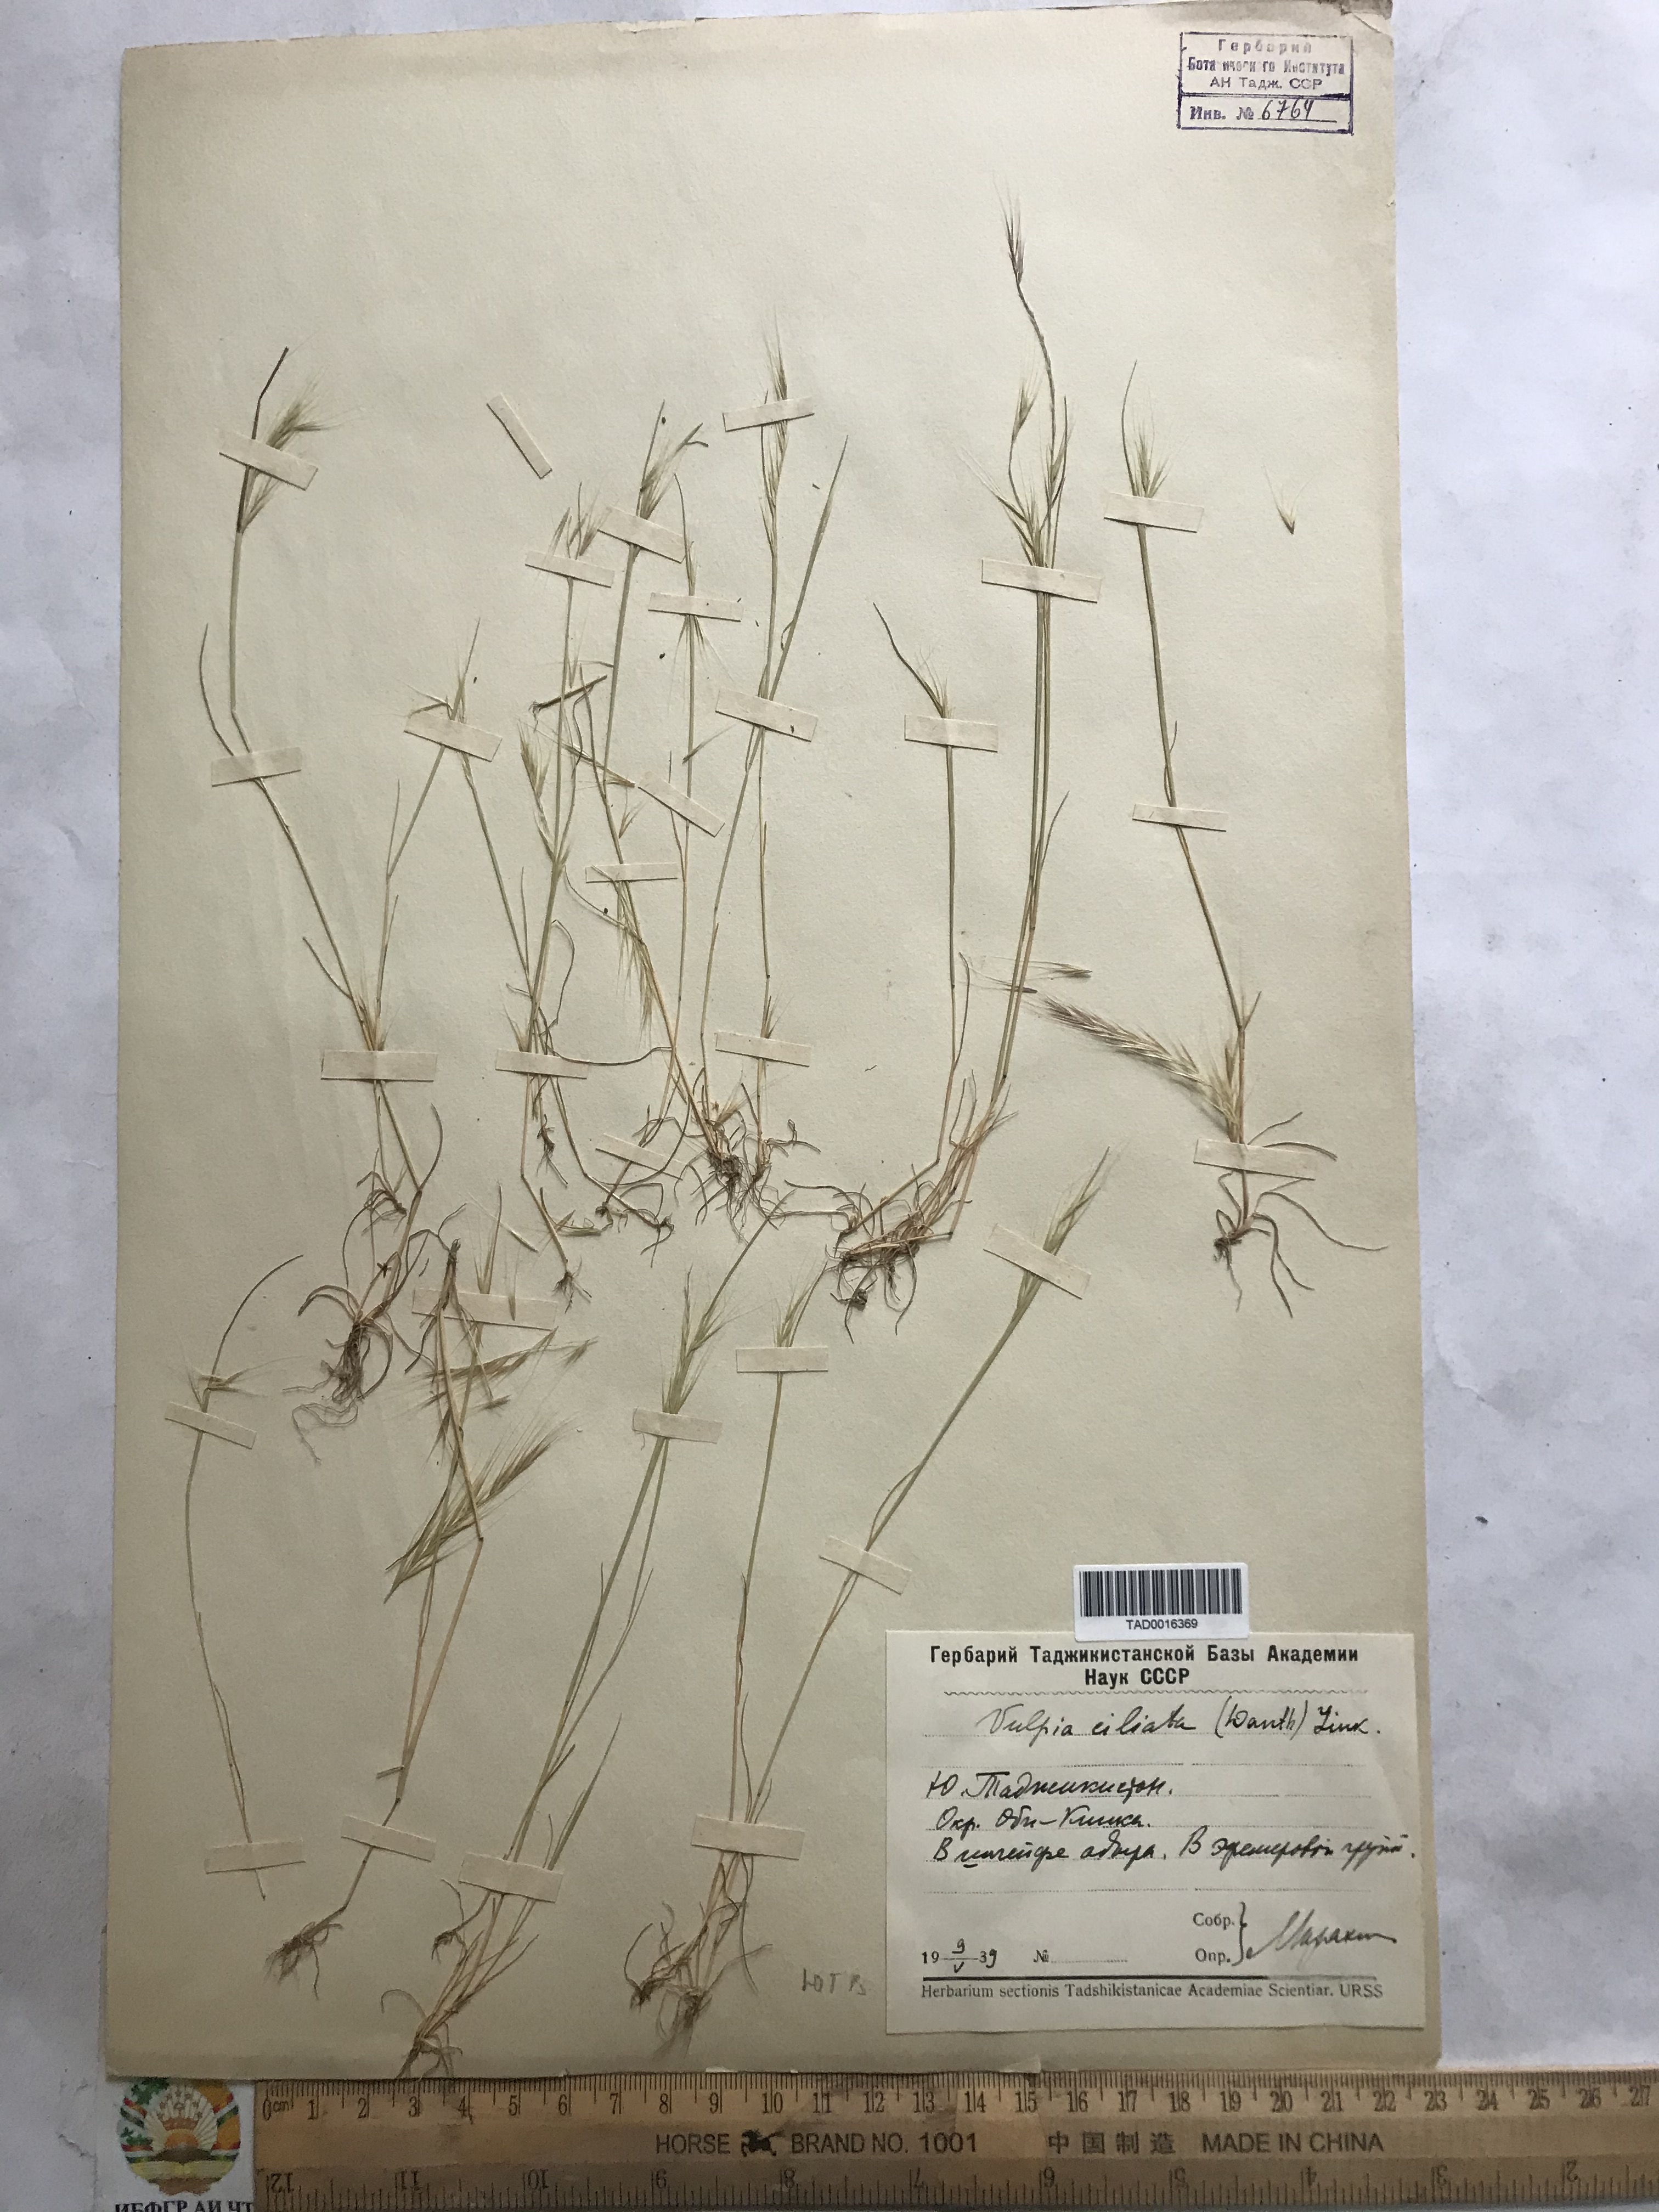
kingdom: Plantae
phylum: Tracheophyta
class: Liliopsida
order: Poales
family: Poaceae
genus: Festuca
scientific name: Festuca ambigua
